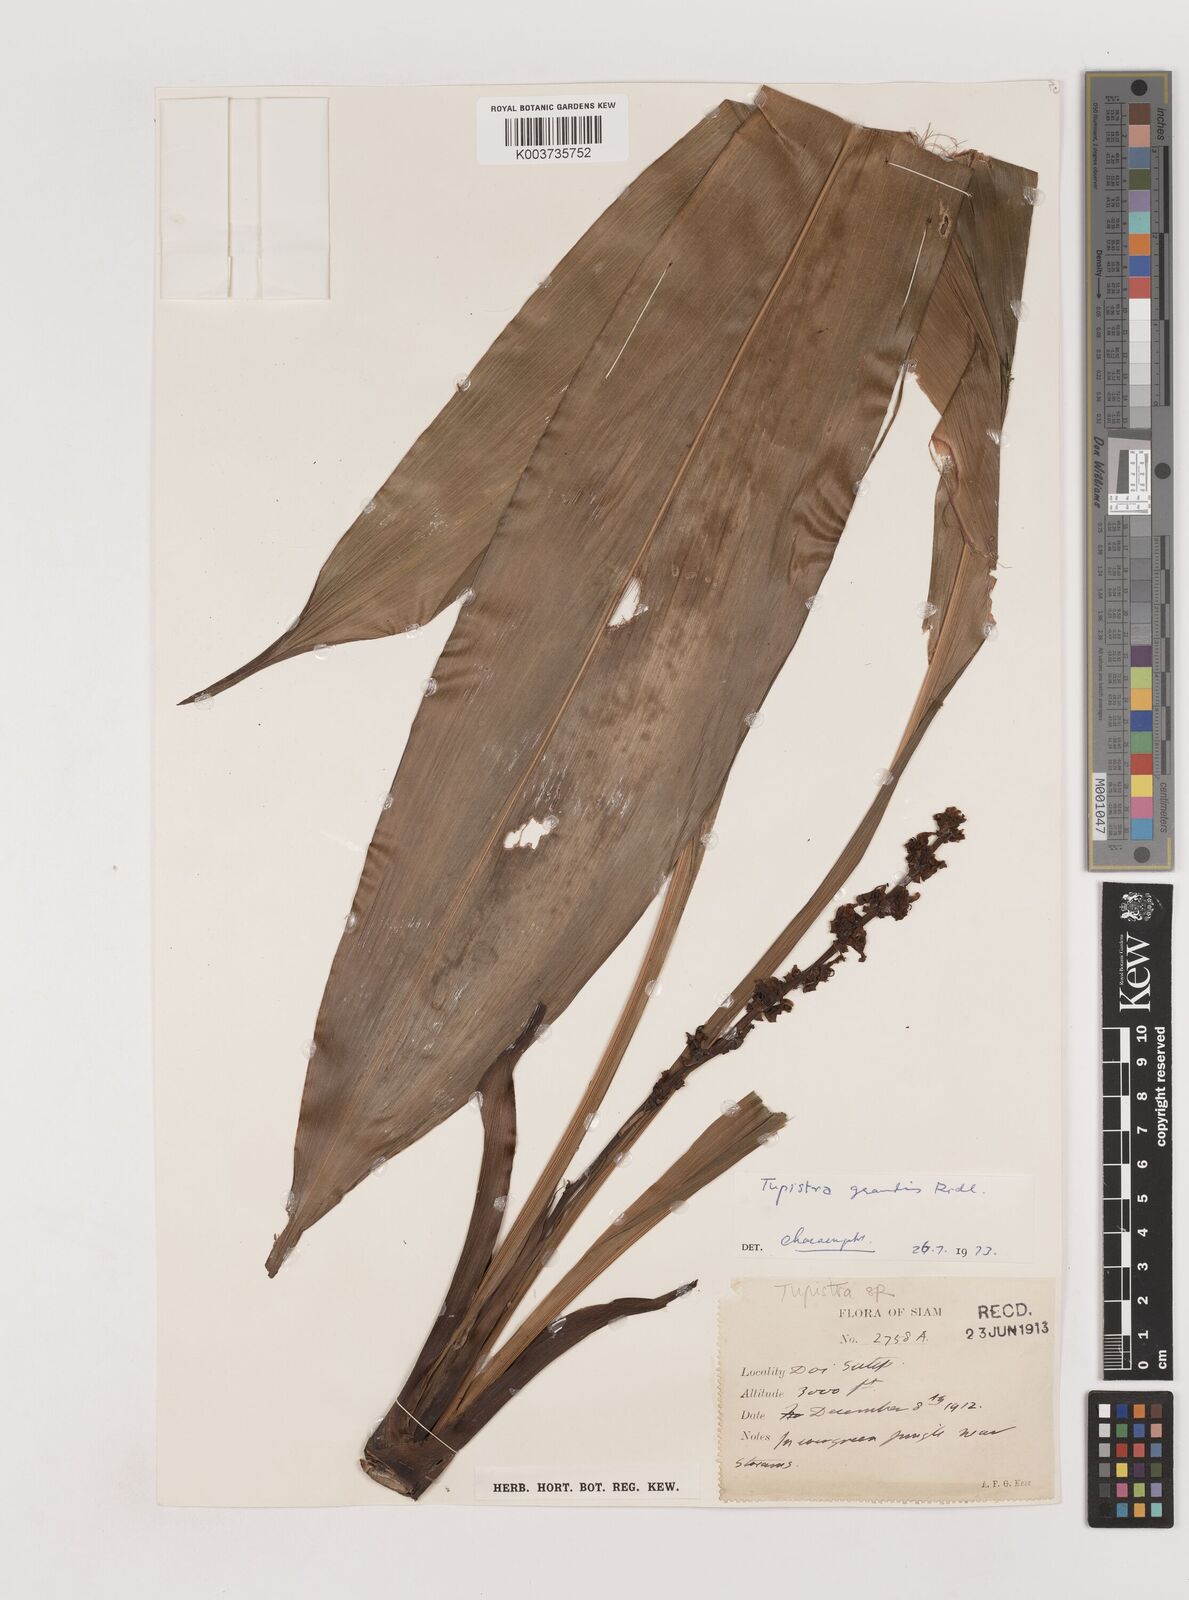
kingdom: Plantae
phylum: Tracheophyta
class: Liliopsida
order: Asparagales
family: Asparagaceae
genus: Tupistra
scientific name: Tupistra grandis
